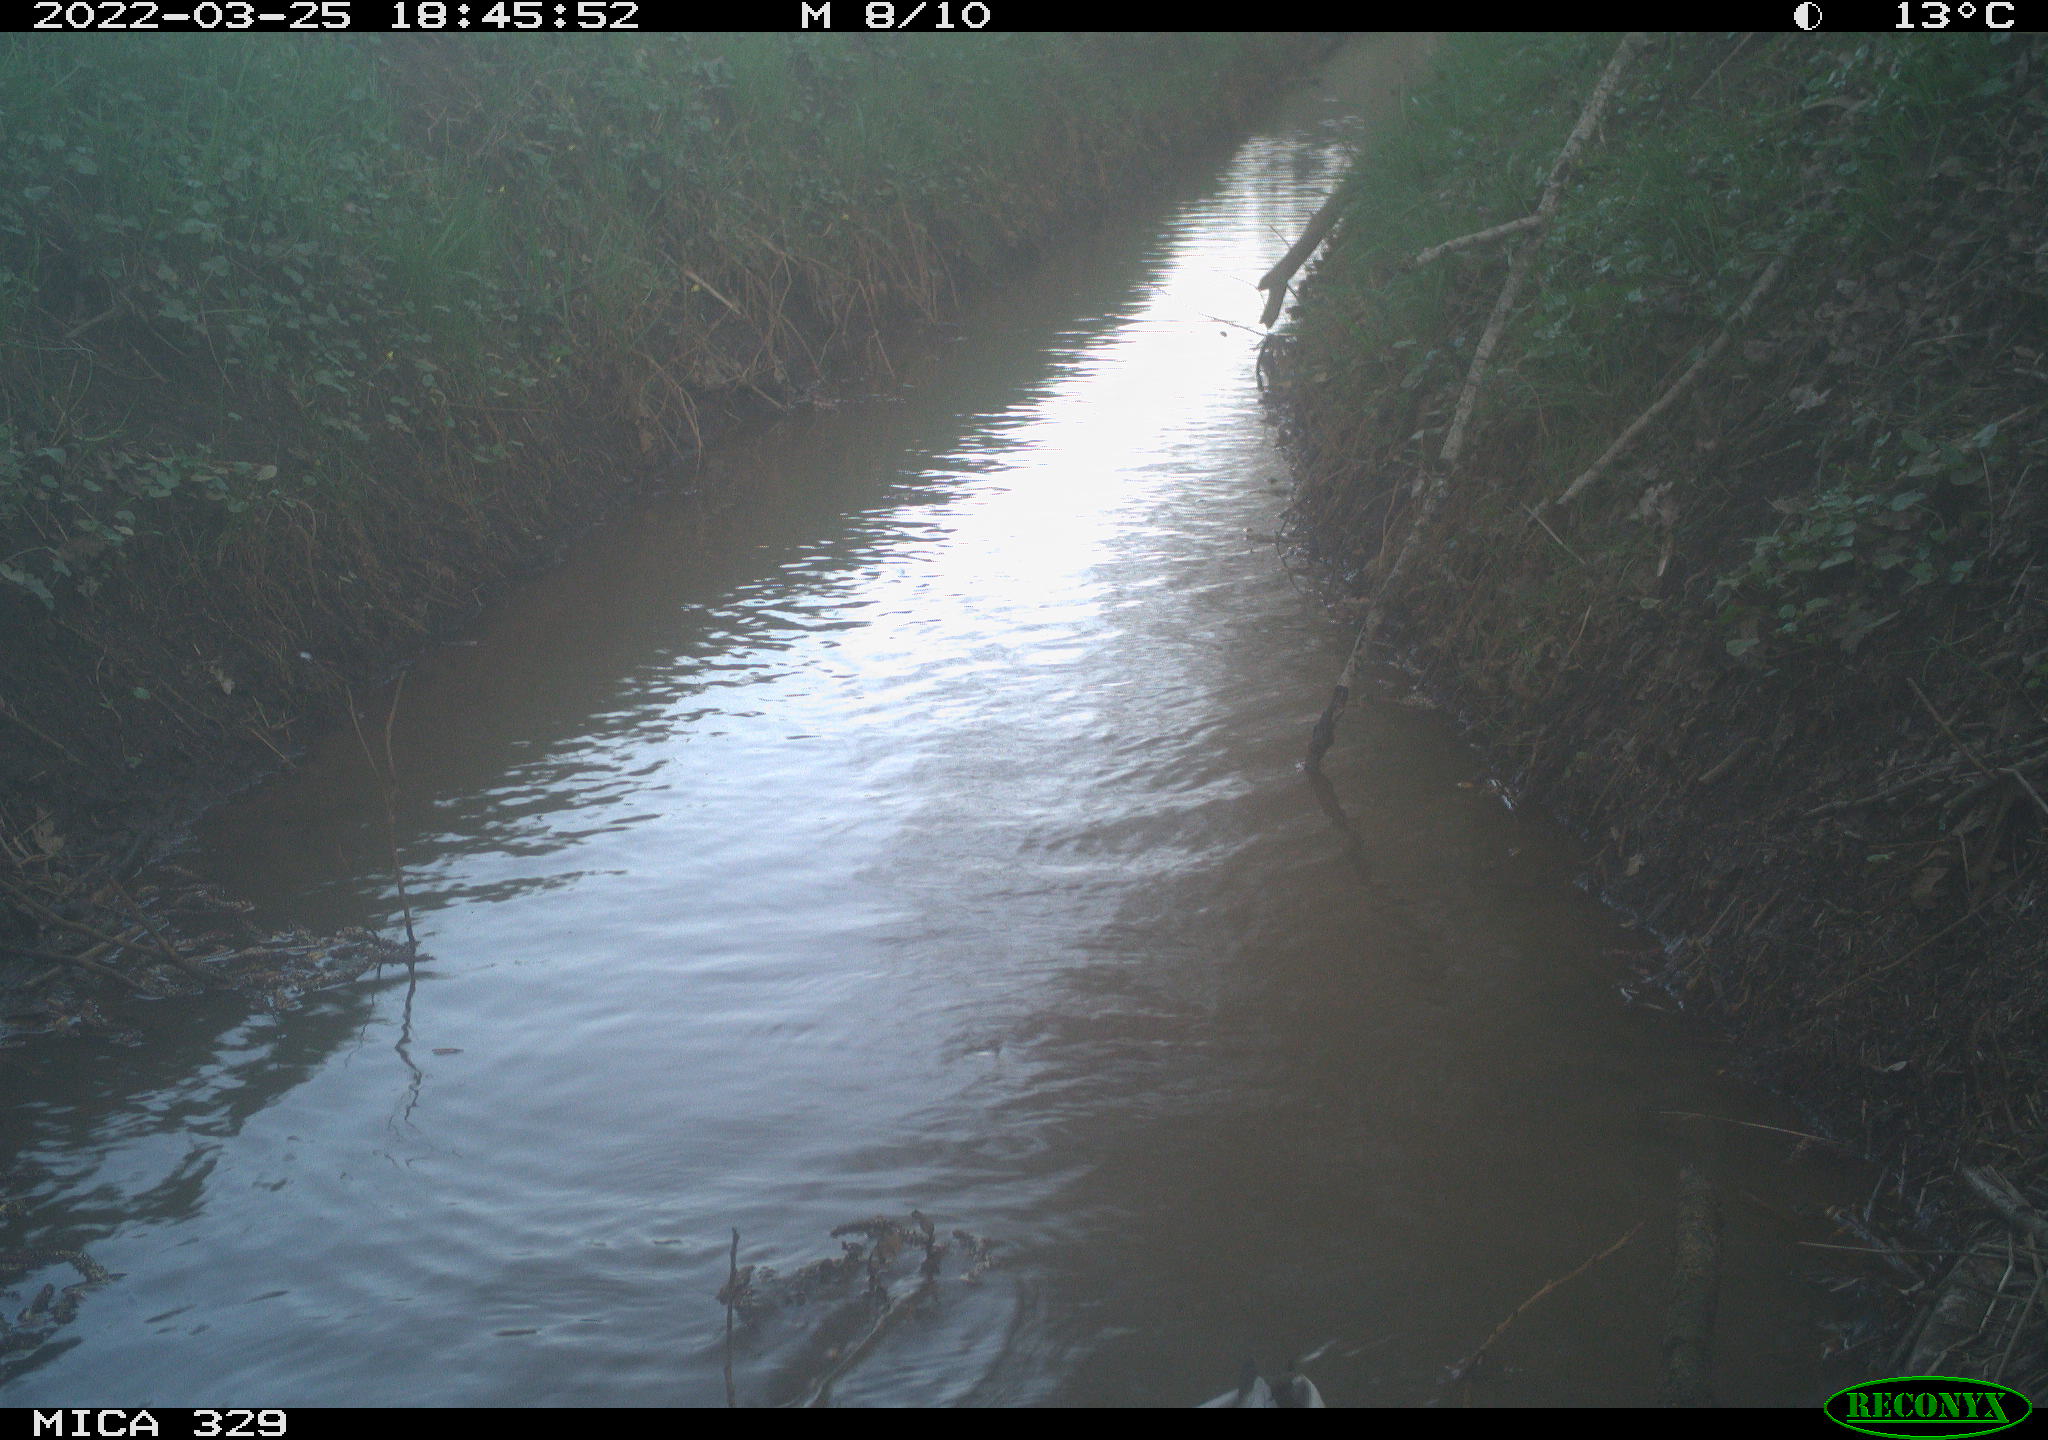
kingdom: Animalia
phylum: Chordata
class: Aves
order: Anseriformes
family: Anatidae
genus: Anas
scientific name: Anas platyrhynchos
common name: Mallard
